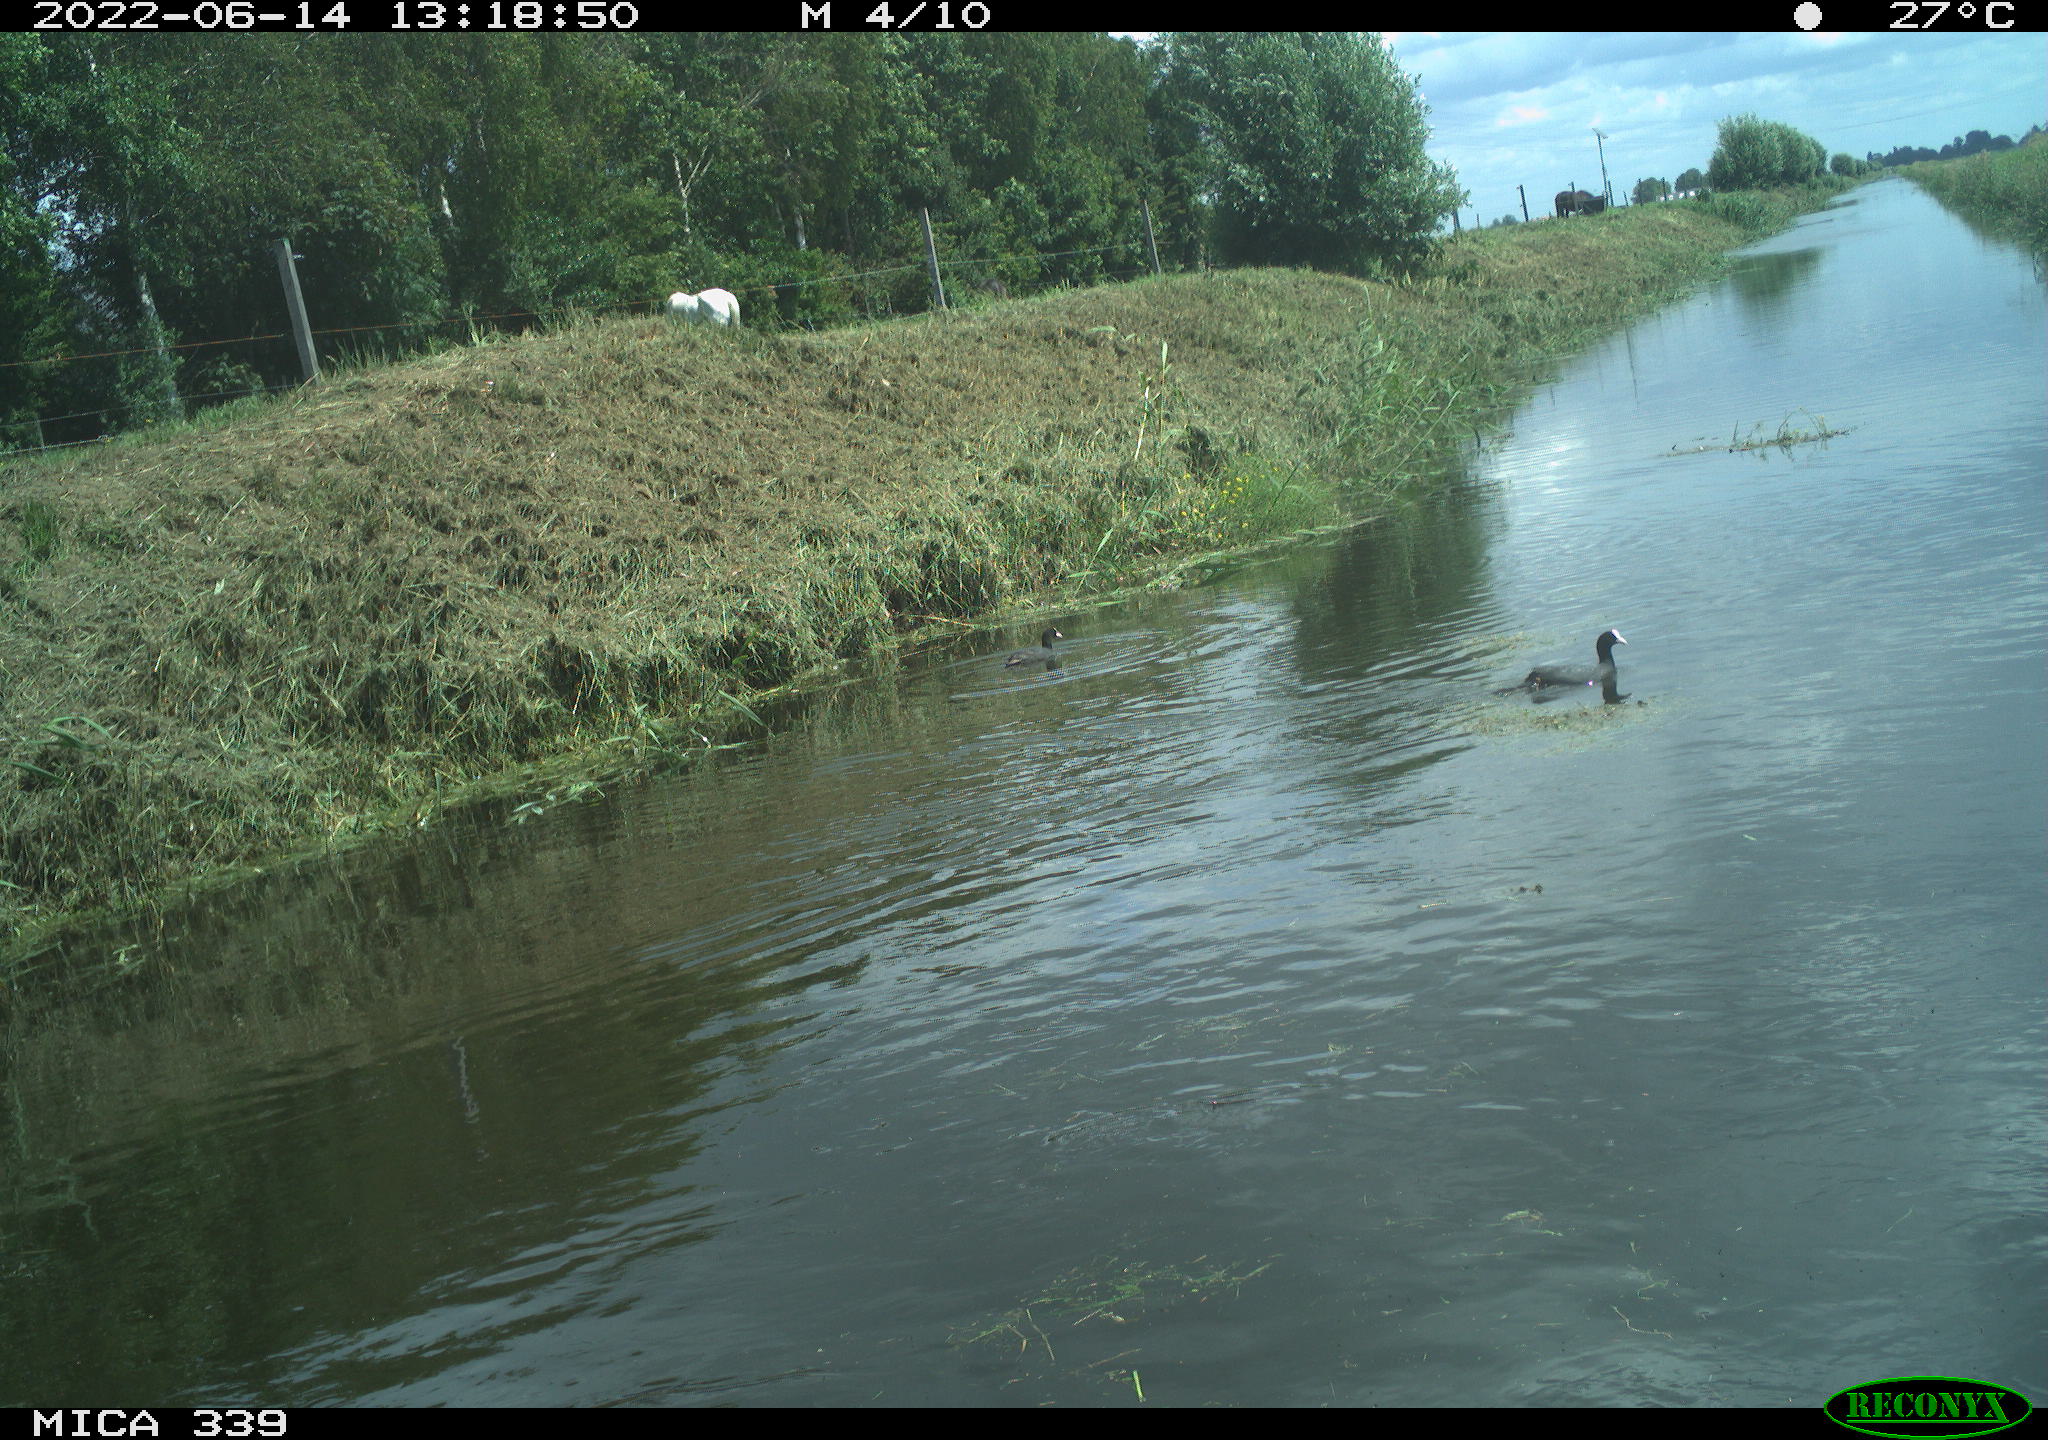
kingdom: Animalia
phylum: Chordata
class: Aves
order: Gruiformes
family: Rallidae
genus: Fulica
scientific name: Fulica atra
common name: Eurasian coot
